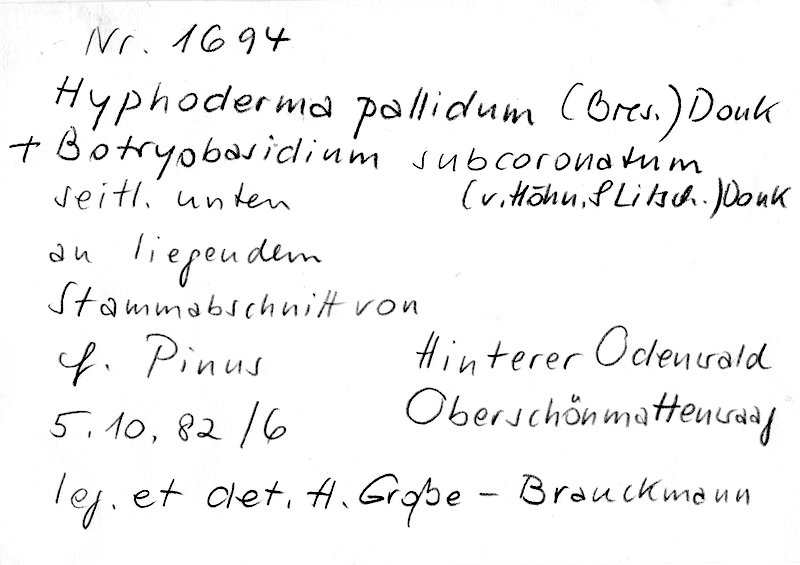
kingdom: Fungi
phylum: Basidiomycota
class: Agaricomycetes
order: Hymenochaetales
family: Rickenellaceae
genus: Peniophorella
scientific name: Peniophorella pallida
